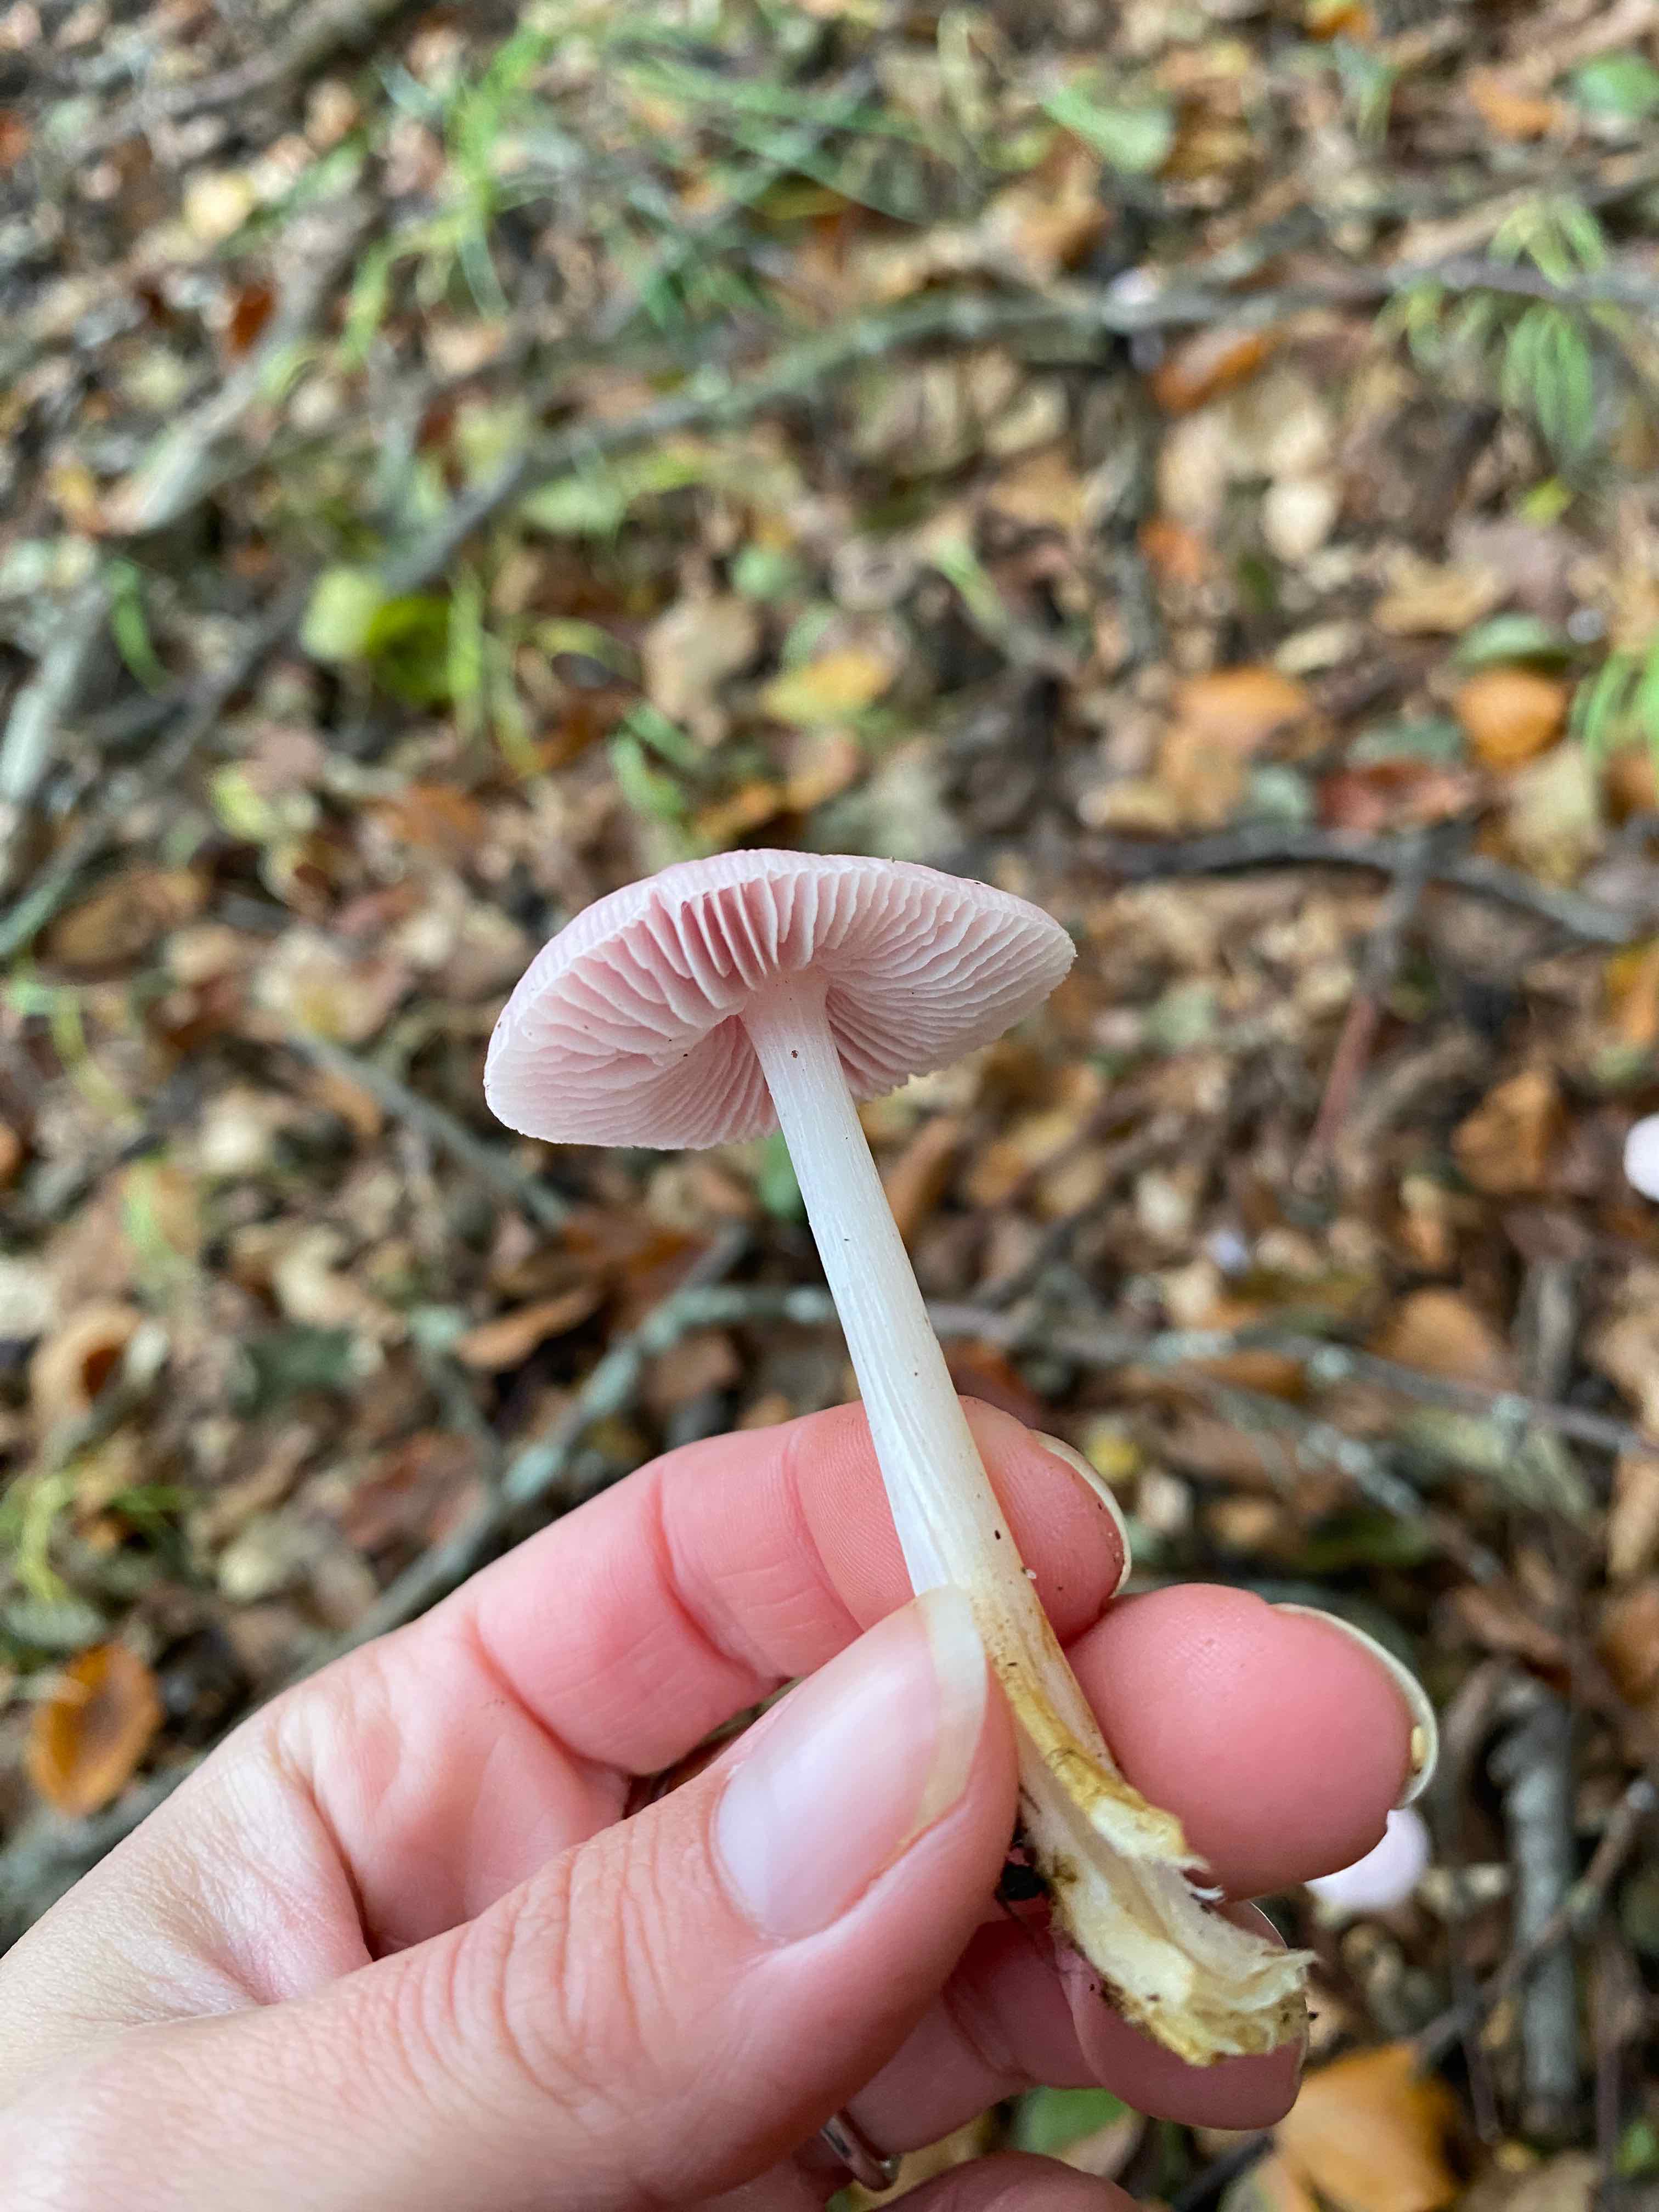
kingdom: Fungi
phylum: Basidiomycota
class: Agaricomycetes
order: Agaricales
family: Mycenaceae
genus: Mycena
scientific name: Mycena rosea
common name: rosa huesvamp
